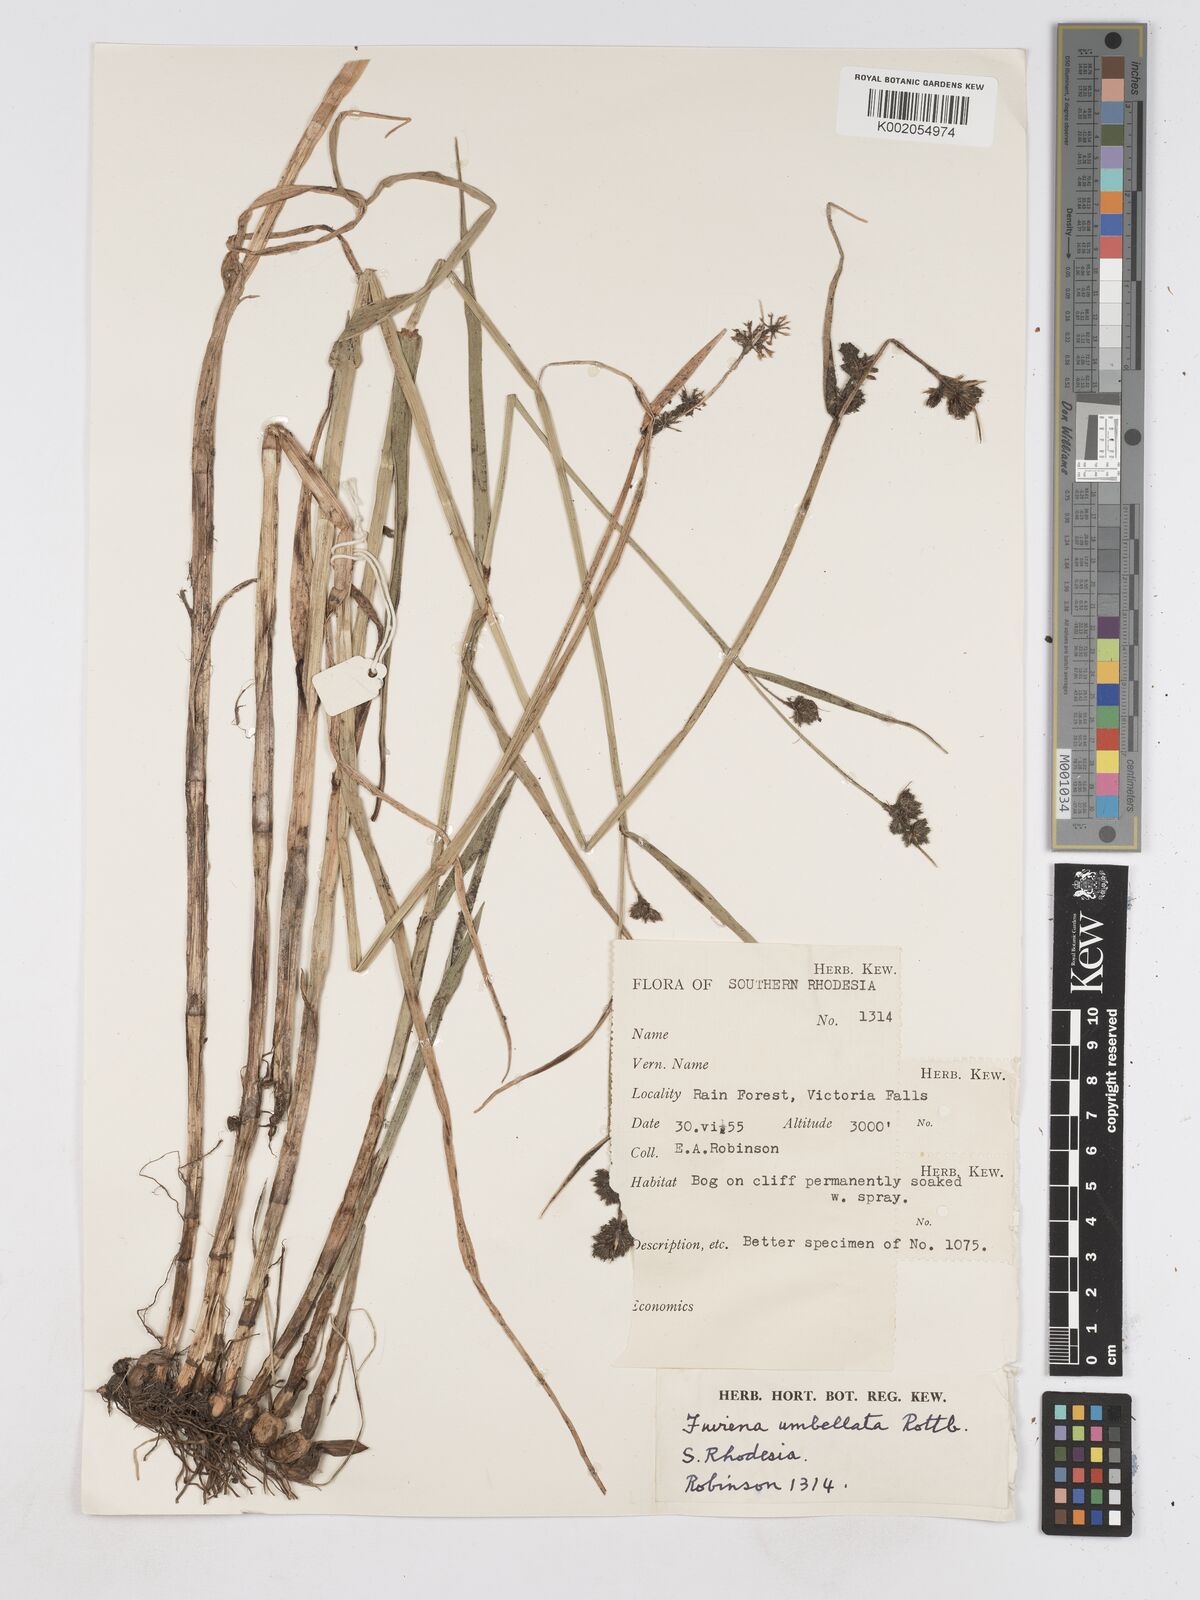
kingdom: Plantae
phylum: Tracheophyta
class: Liliopsida
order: Poales
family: Cyperaceae
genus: Fuirena
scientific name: Fuirena umbellata
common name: Yefen
